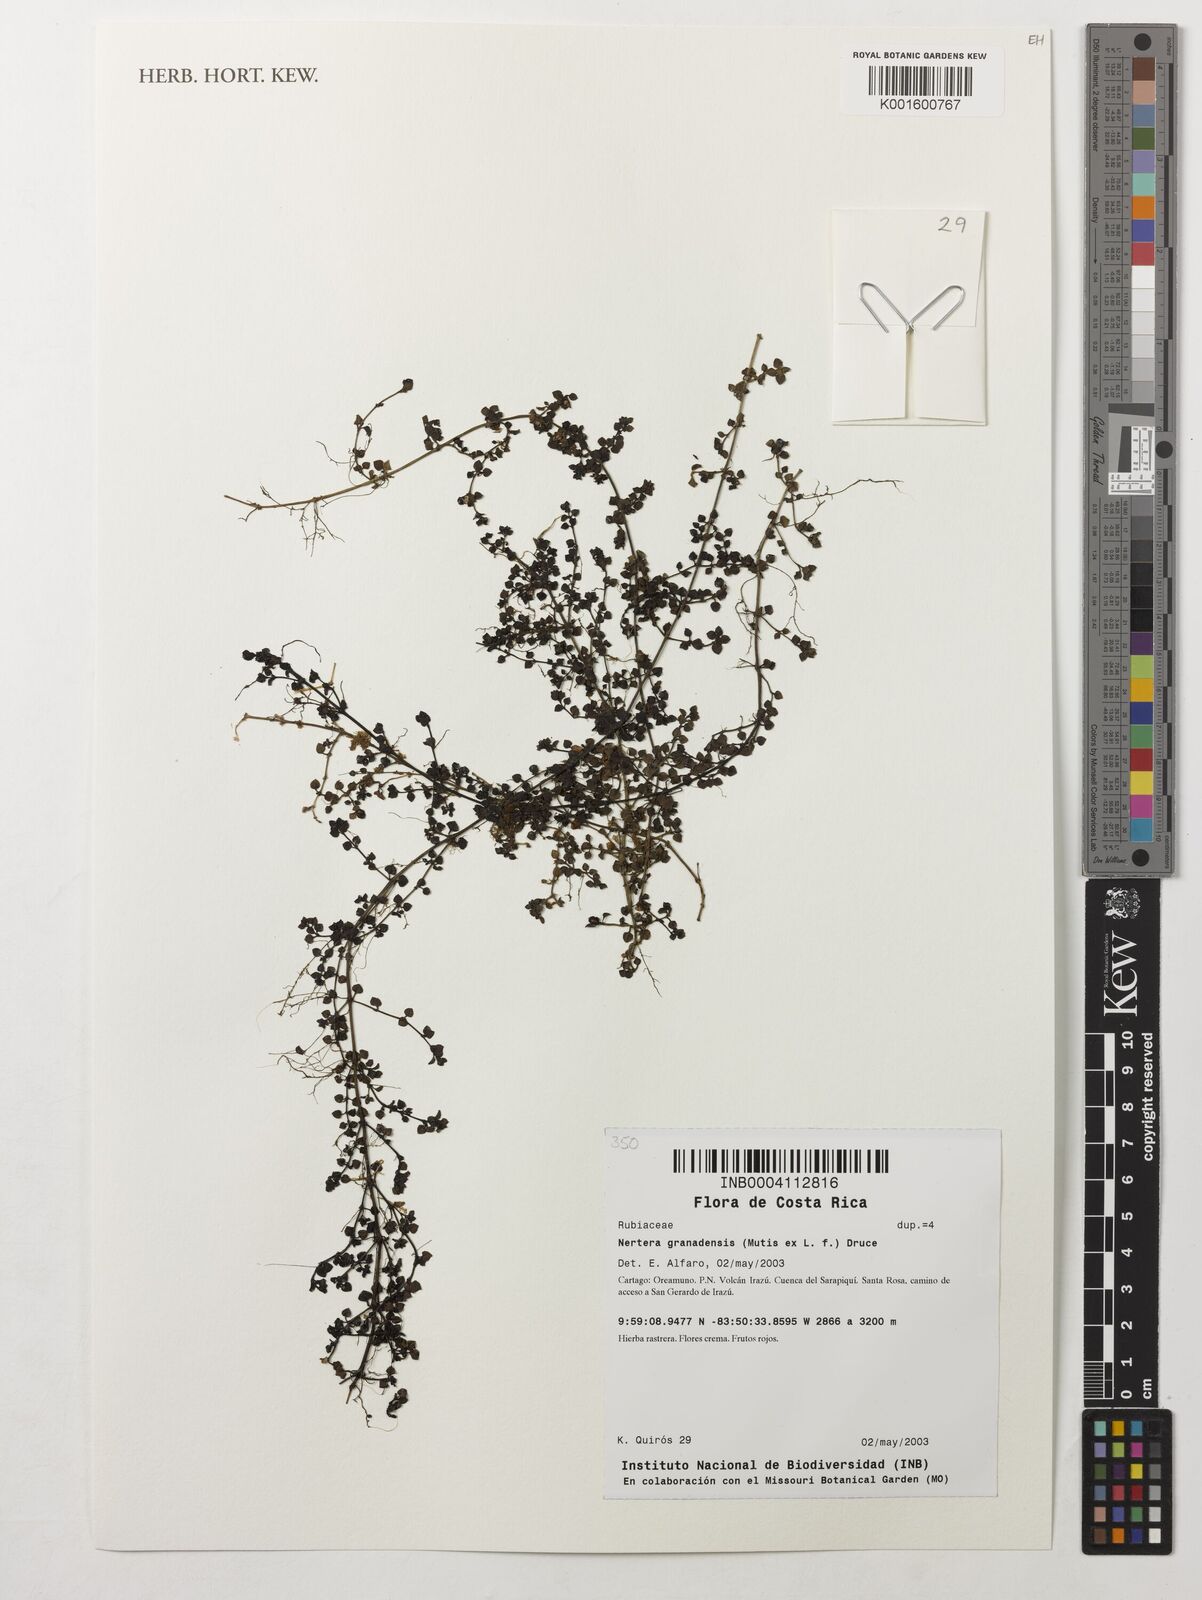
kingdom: Plantae
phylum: Tracheophyta
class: Magnoliopsida
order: Gentianales
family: Rubiaceae
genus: Nertera
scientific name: Nertera granadensis
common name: Beadplant
